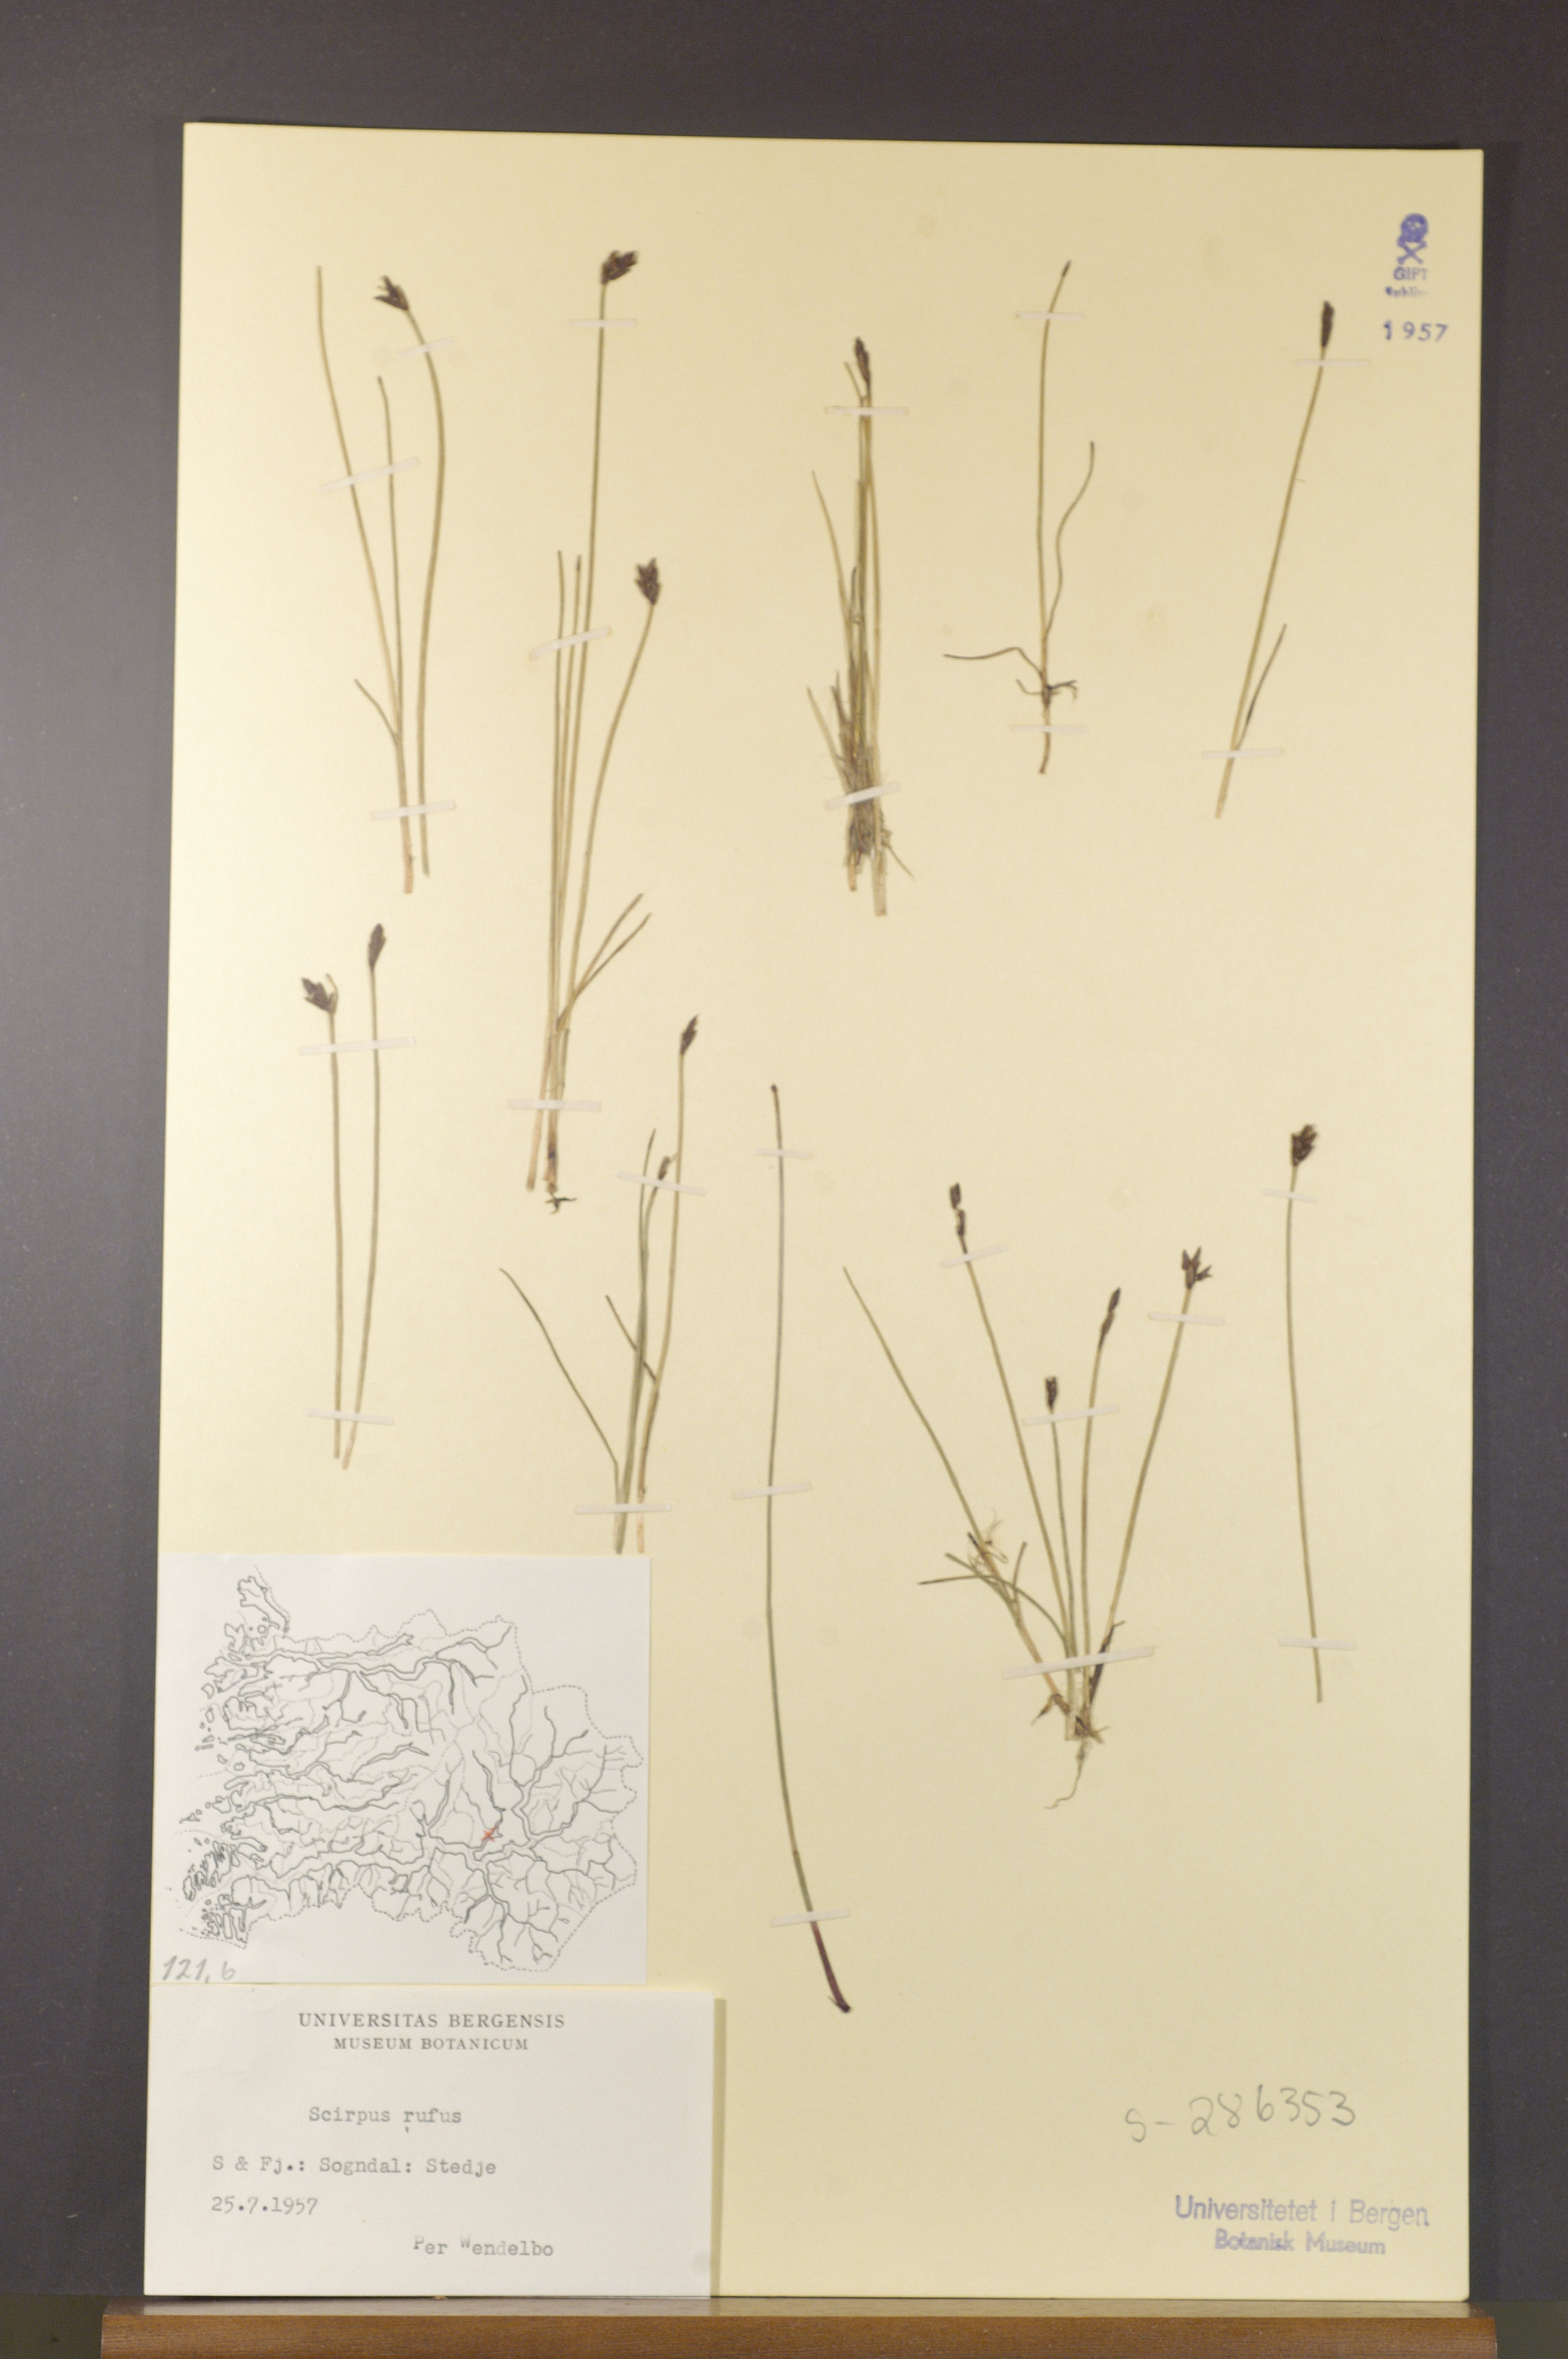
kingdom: Plantae
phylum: Tracheophyta
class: Liliopsida
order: Poales
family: Cyperaceae
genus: Blysmus
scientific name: Blysmus rufus
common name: Saltmarsh flat-sedge
